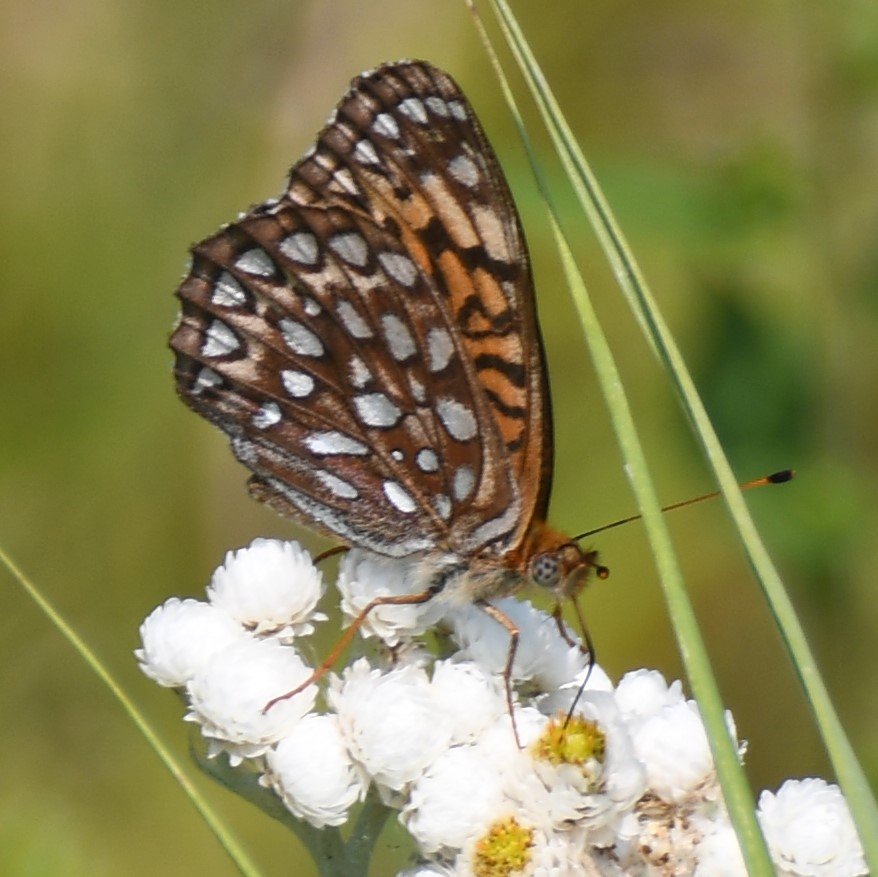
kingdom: Animalia
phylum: Arthropoda
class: Insecta
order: Lepidoptera
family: Nymphalidae
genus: Speyeria
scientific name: Speyeria atlantis
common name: Atlantis Fritillary
